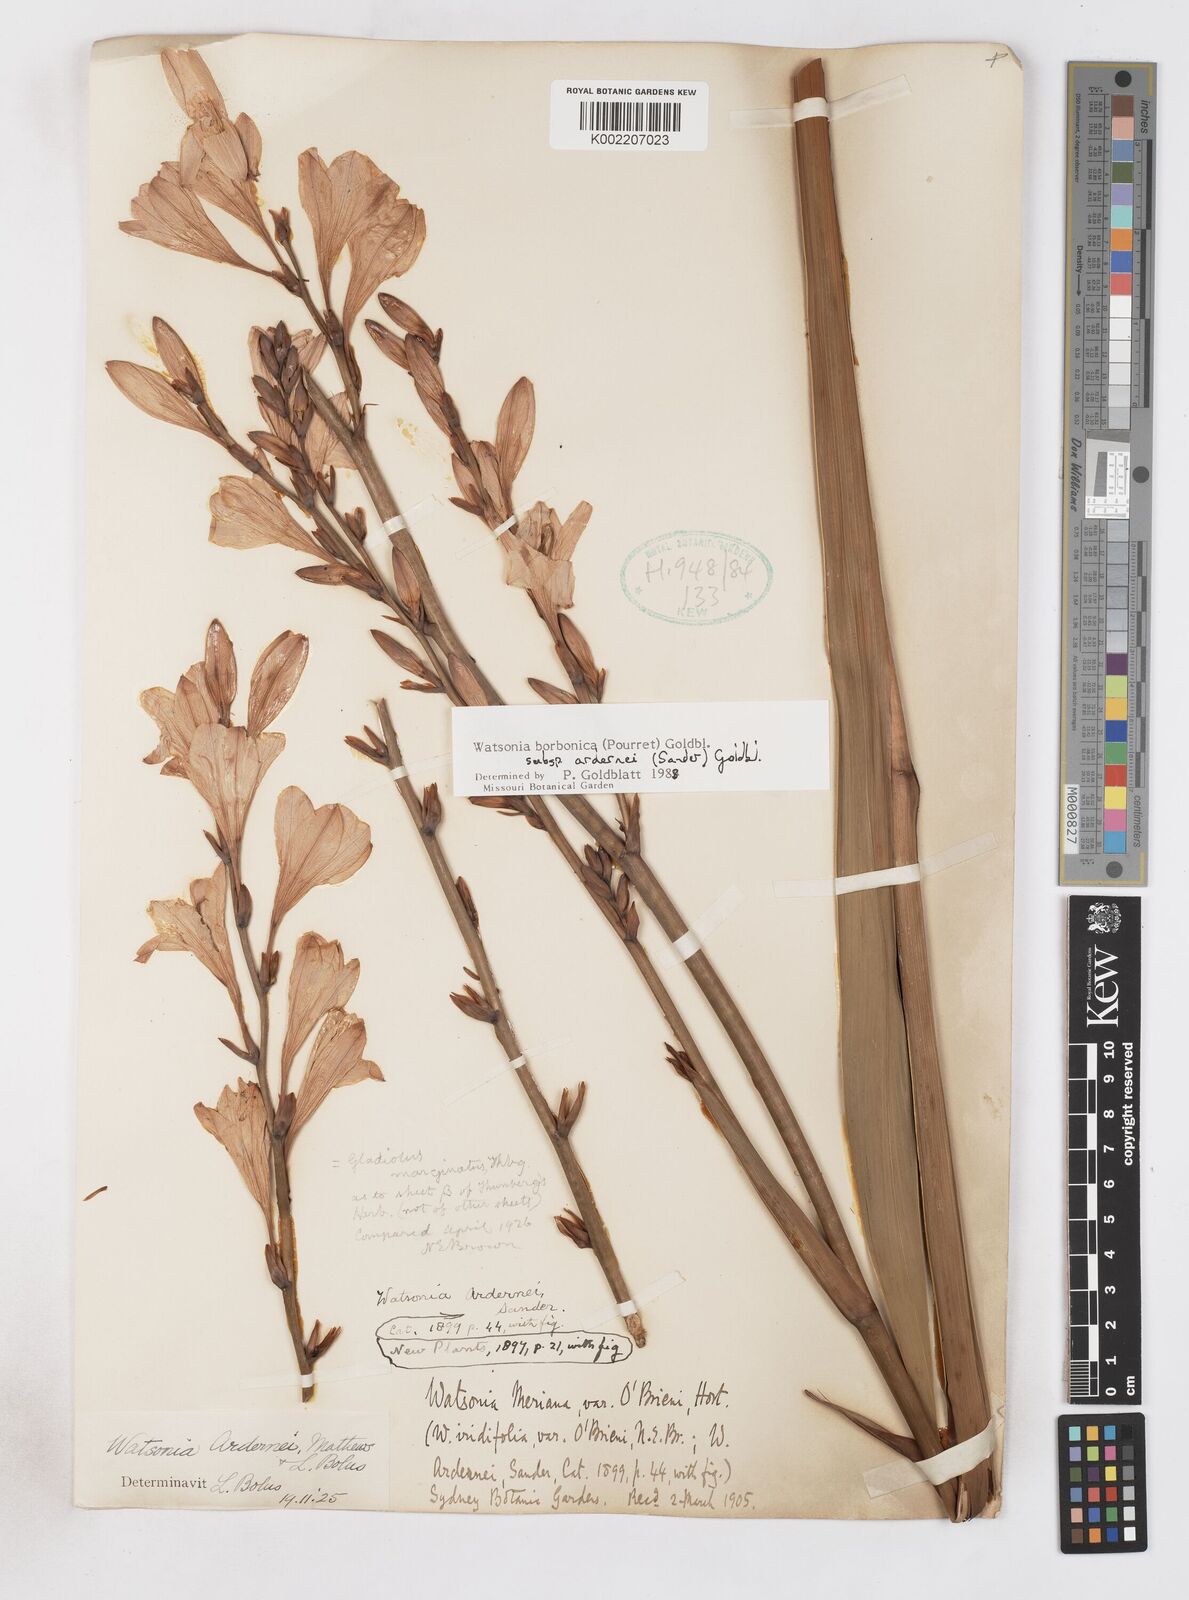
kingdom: Plantae
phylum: Tracheophyta
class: Liliopsida
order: Asparagales
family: Iridaceae
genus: Watsonia
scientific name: Watsonia borbonica
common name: Bugle-lily
